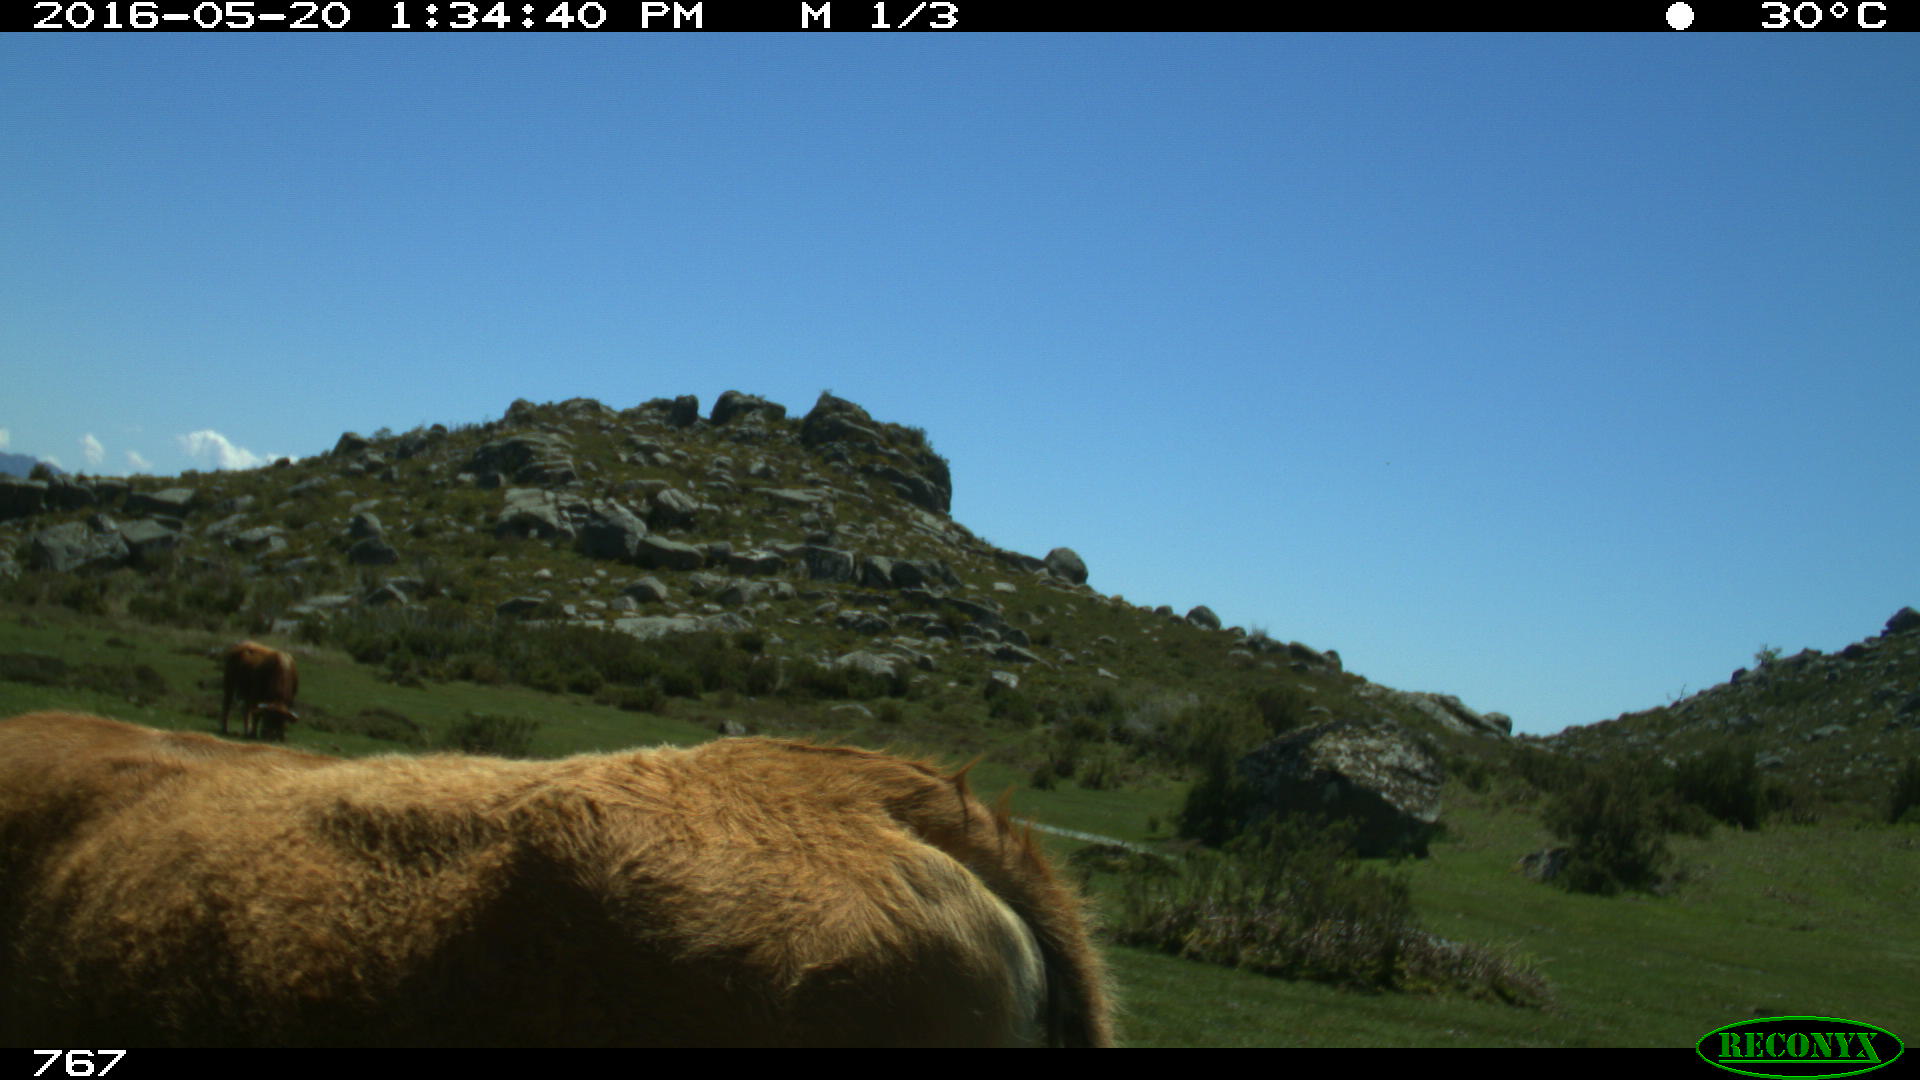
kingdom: Animalia
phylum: Chordata
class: Mammalia
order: Artiodactyla
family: Bovidae
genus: Bos
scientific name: Bos taurus
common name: Domesticated cattle
